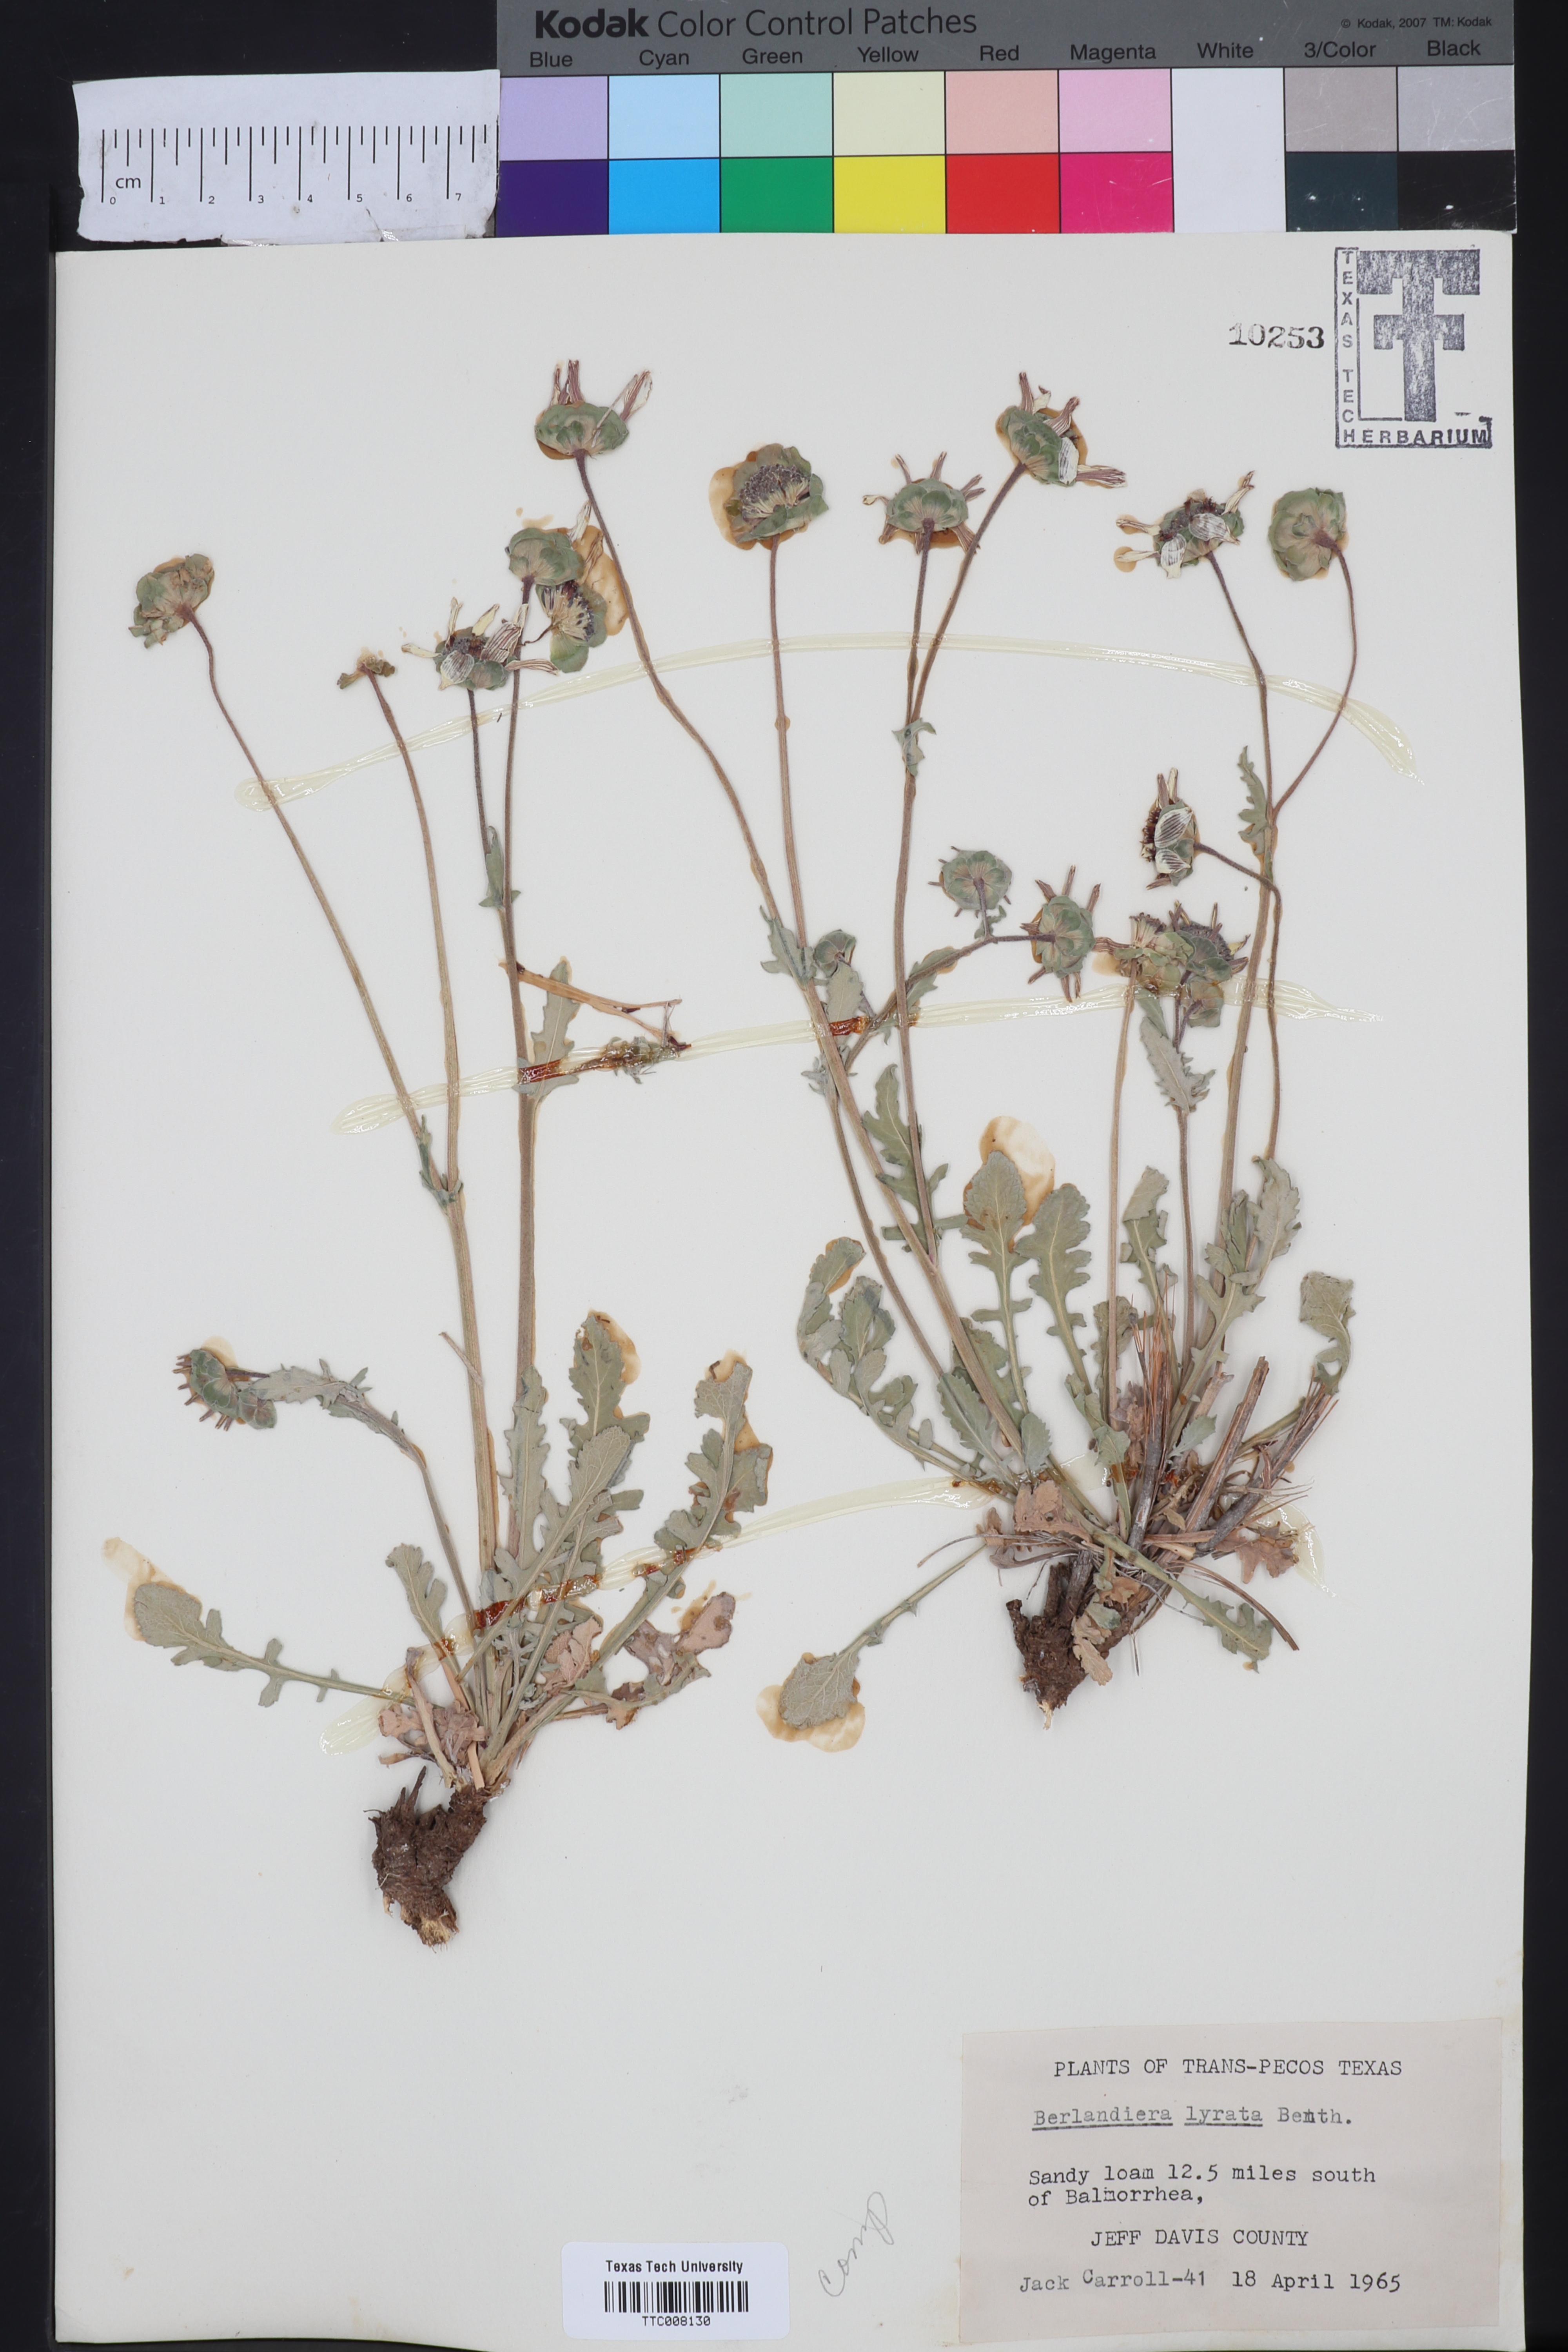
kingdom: Plantae
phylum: Tracheophyta
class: Magnoliopsida
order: Asterales
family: Asteraceae
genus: Berlandiera
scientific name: Berlandiera lyrata
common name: Chocolate-flower
